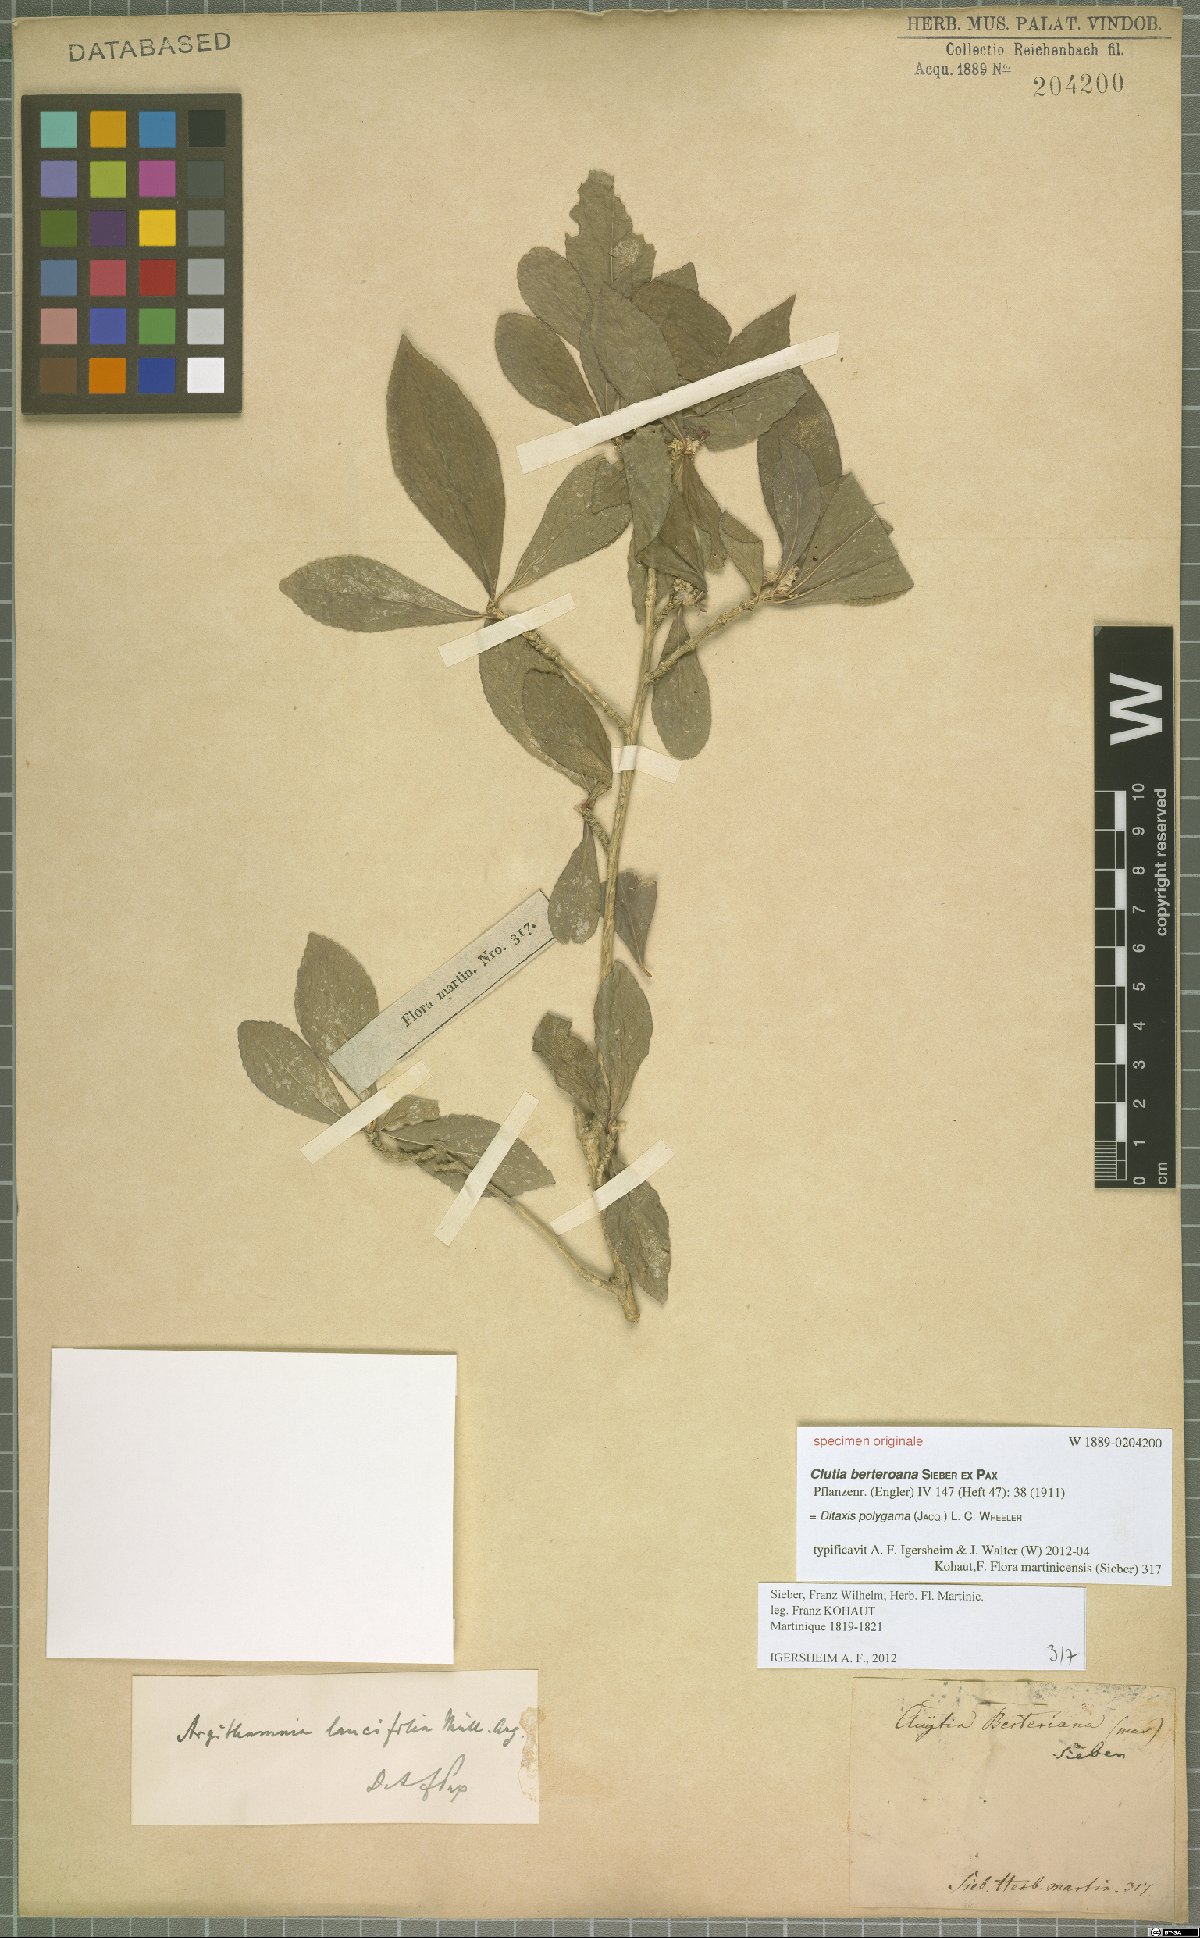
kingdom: Plantae
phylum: Tracheophyta
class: Magnoliopsida
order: Malpighiales
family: Euphorbiaceae
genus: Ditaxis
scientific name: Ditaxis polygama
